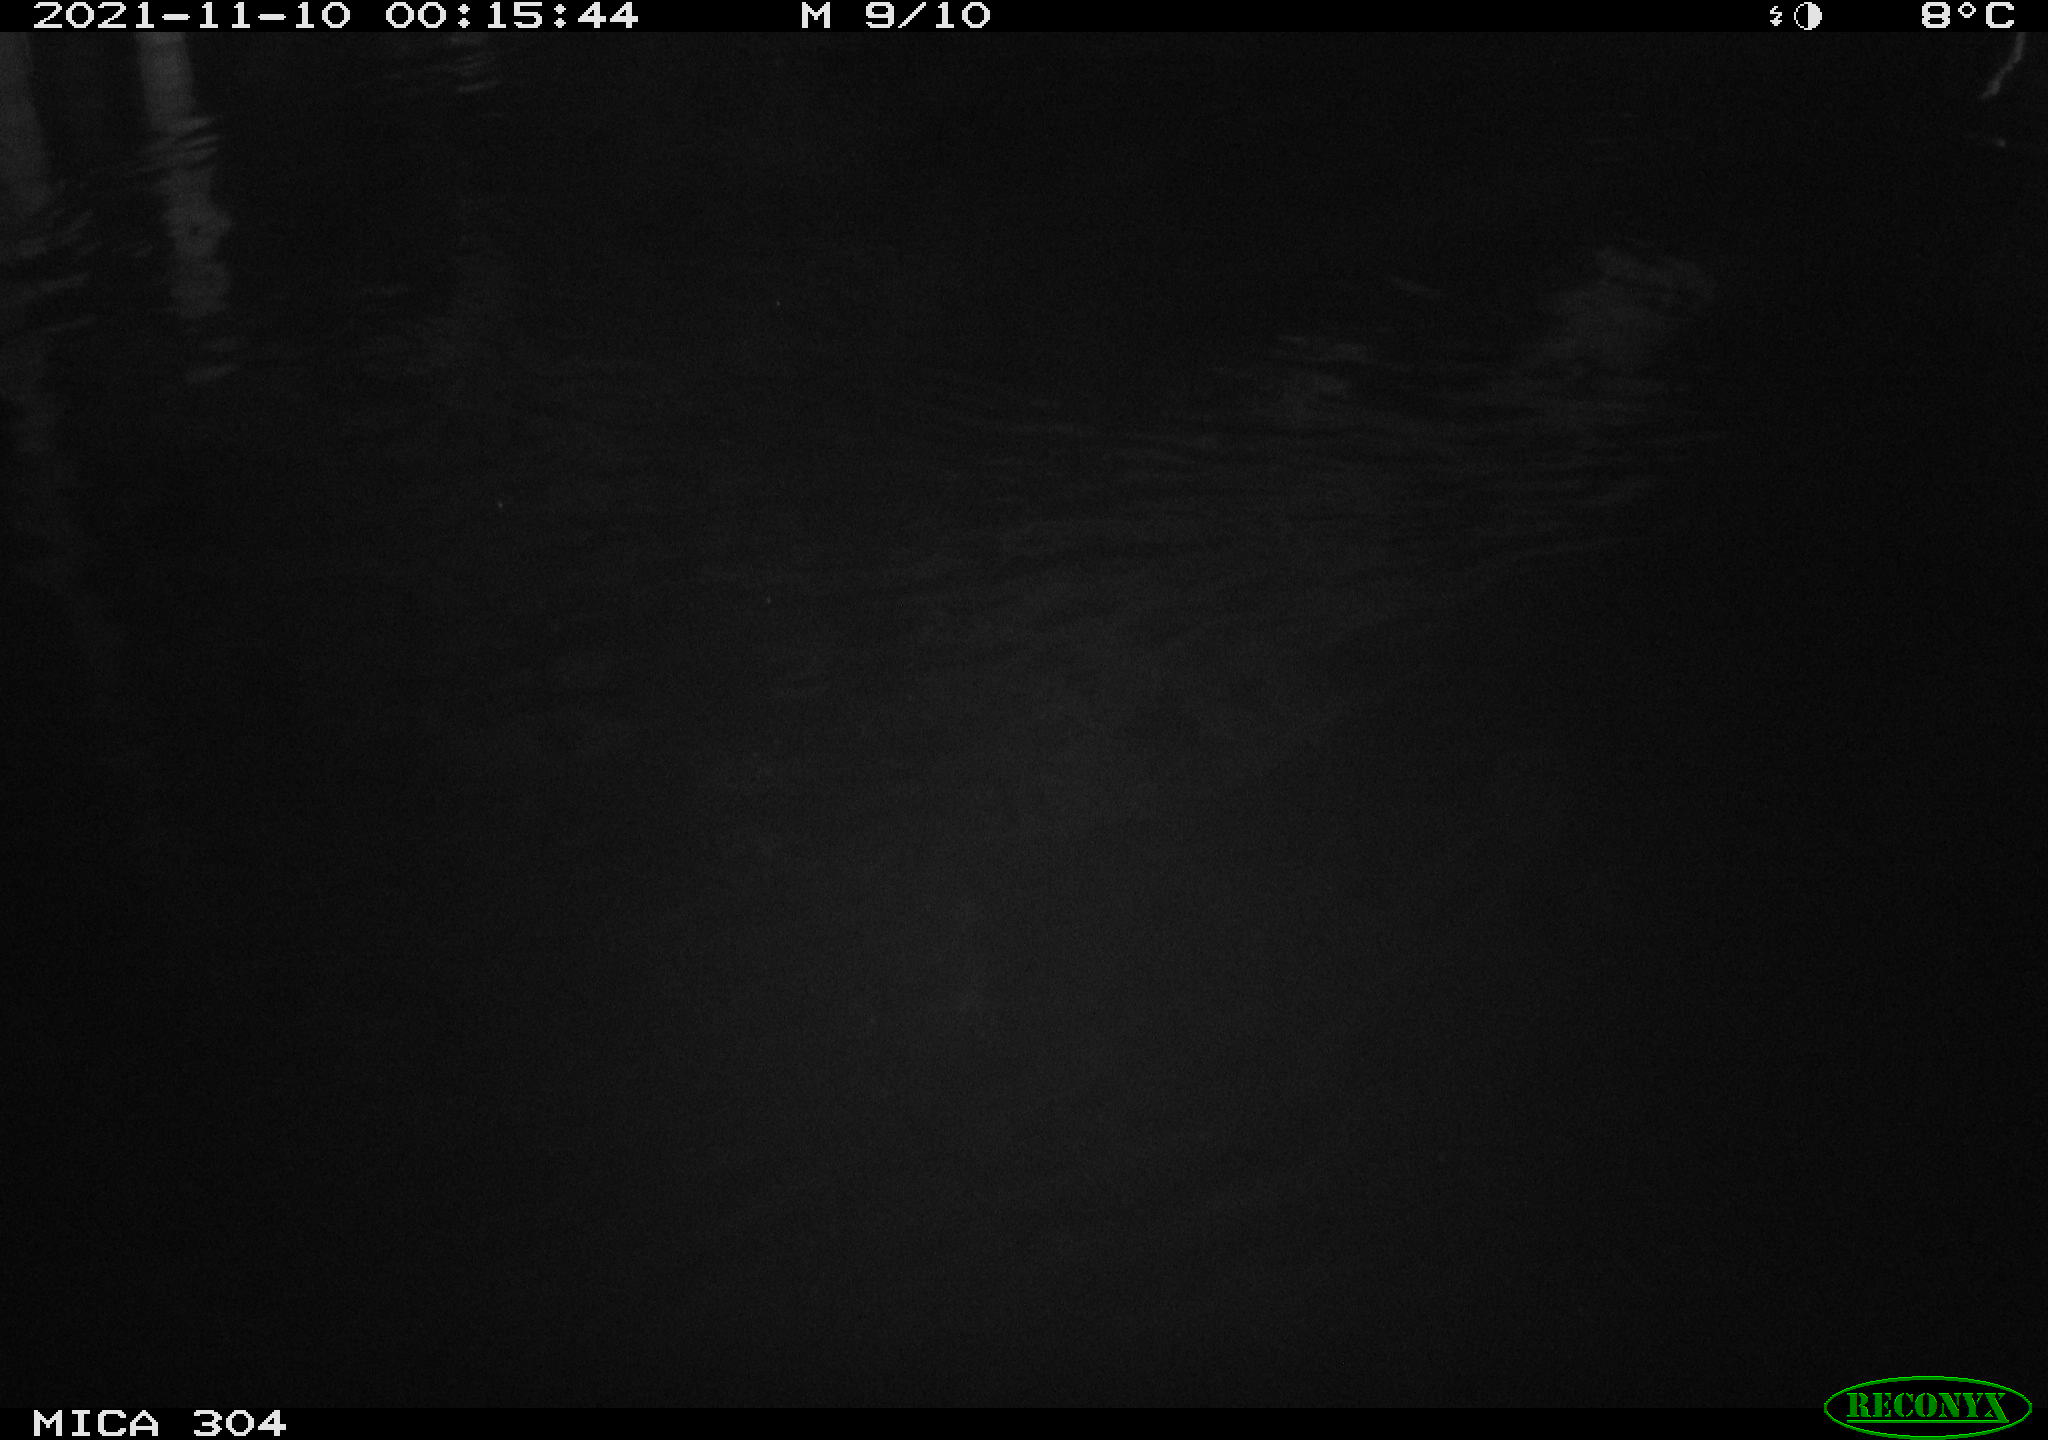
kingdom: Animalia
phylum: Chordata
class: Mammalia
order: Rodentia
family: Muridae
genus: Rattus
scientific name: Rattus norvegicus
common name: Brown rat
